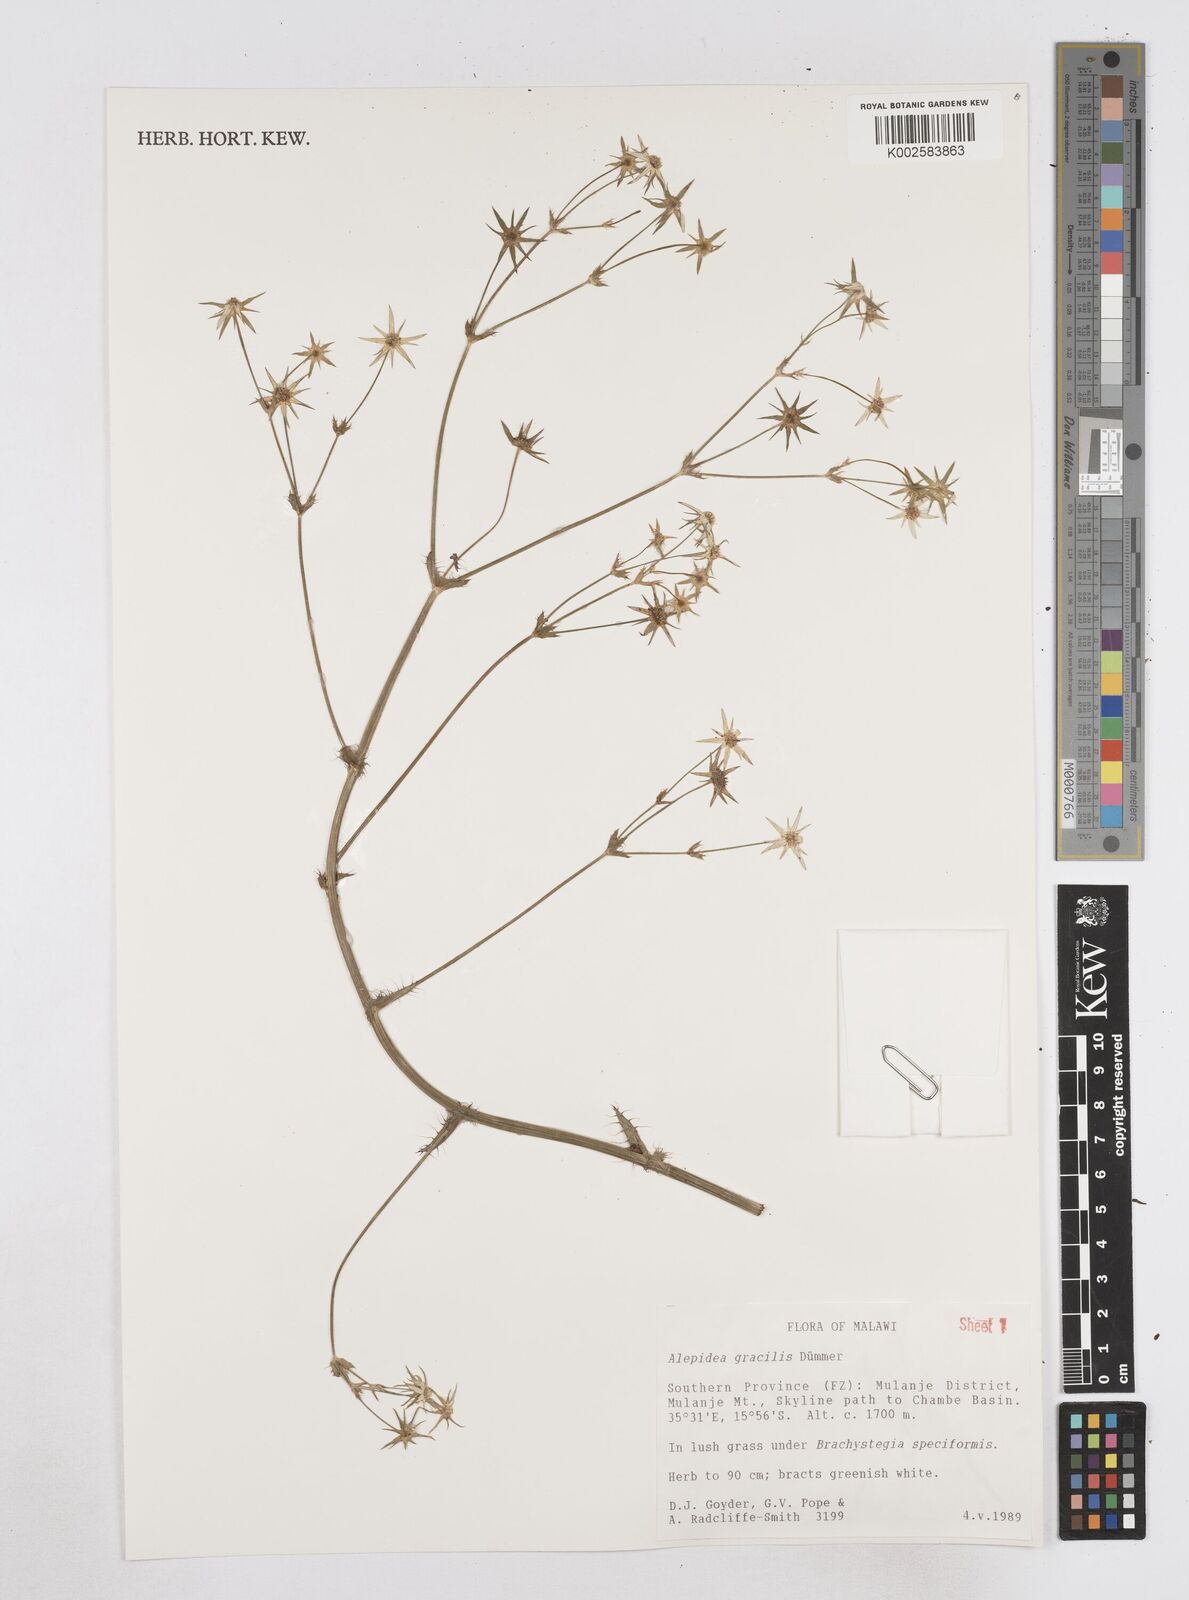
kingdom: Plantae
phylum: Tracheophyta
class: Magnoliopsida
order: Apiales
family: Apiaceae
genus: Alepidea
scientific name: Alepidea peduncularis
